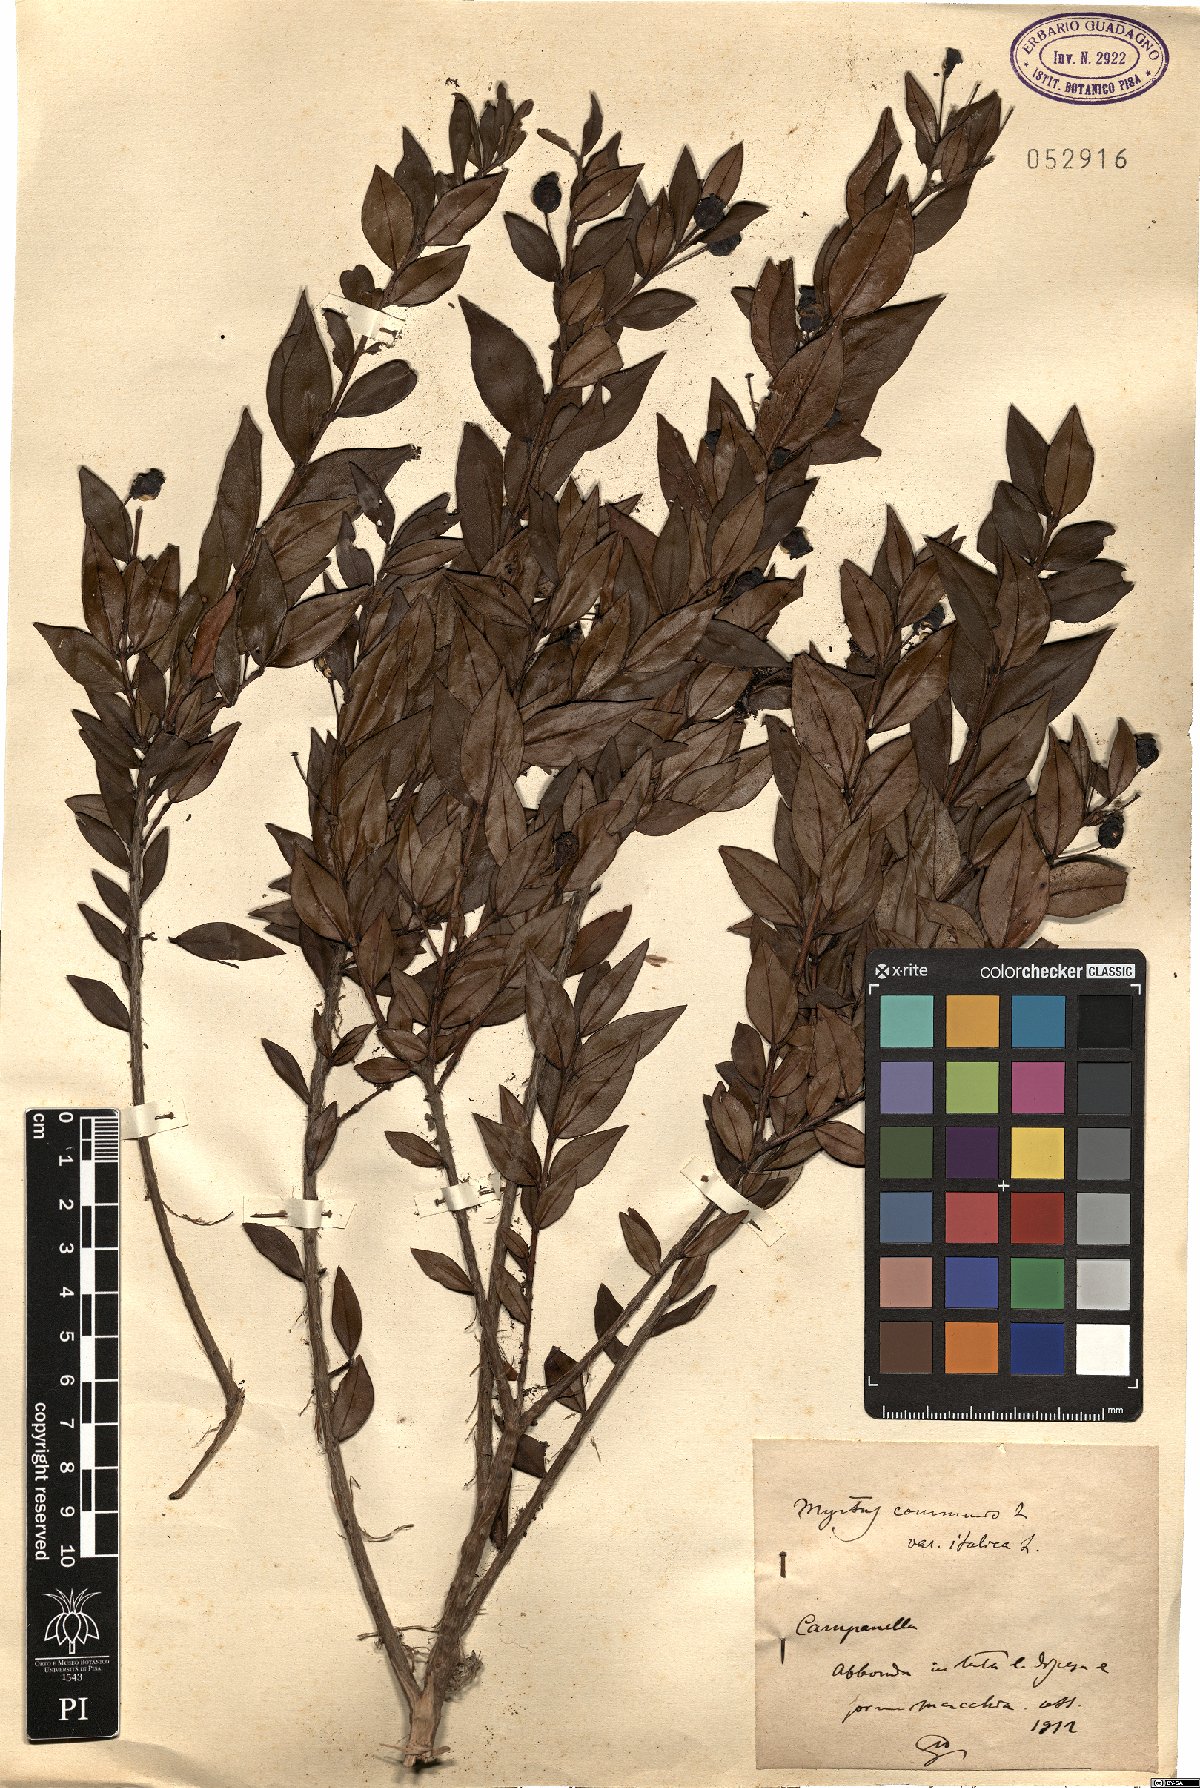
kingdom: Plantae
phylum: Tracheophyta
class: Magnoliopsida
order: Myrtales
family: Myrtaceae
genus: Myrtus
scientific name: Myrtus communis
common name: Myrtle
